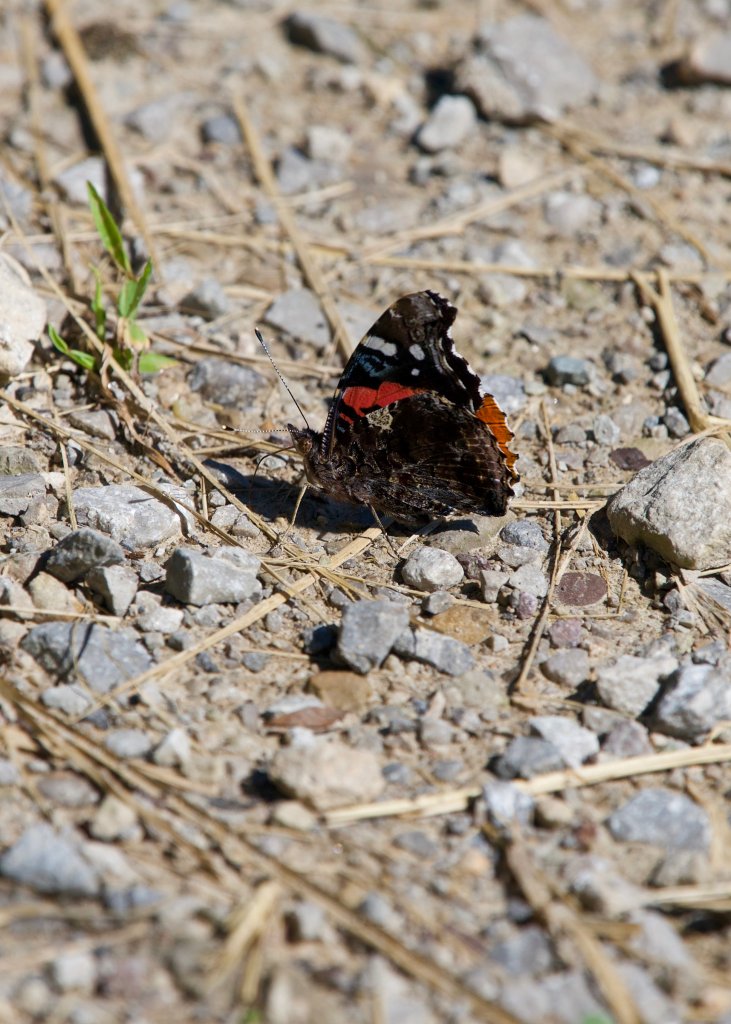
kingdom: Animalia
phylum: Arthropoda
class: Insecta
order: Lepidoptera
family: Nymphalidae
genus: Vanessa
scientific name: Vanessa atalanta
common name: Red Admiral
